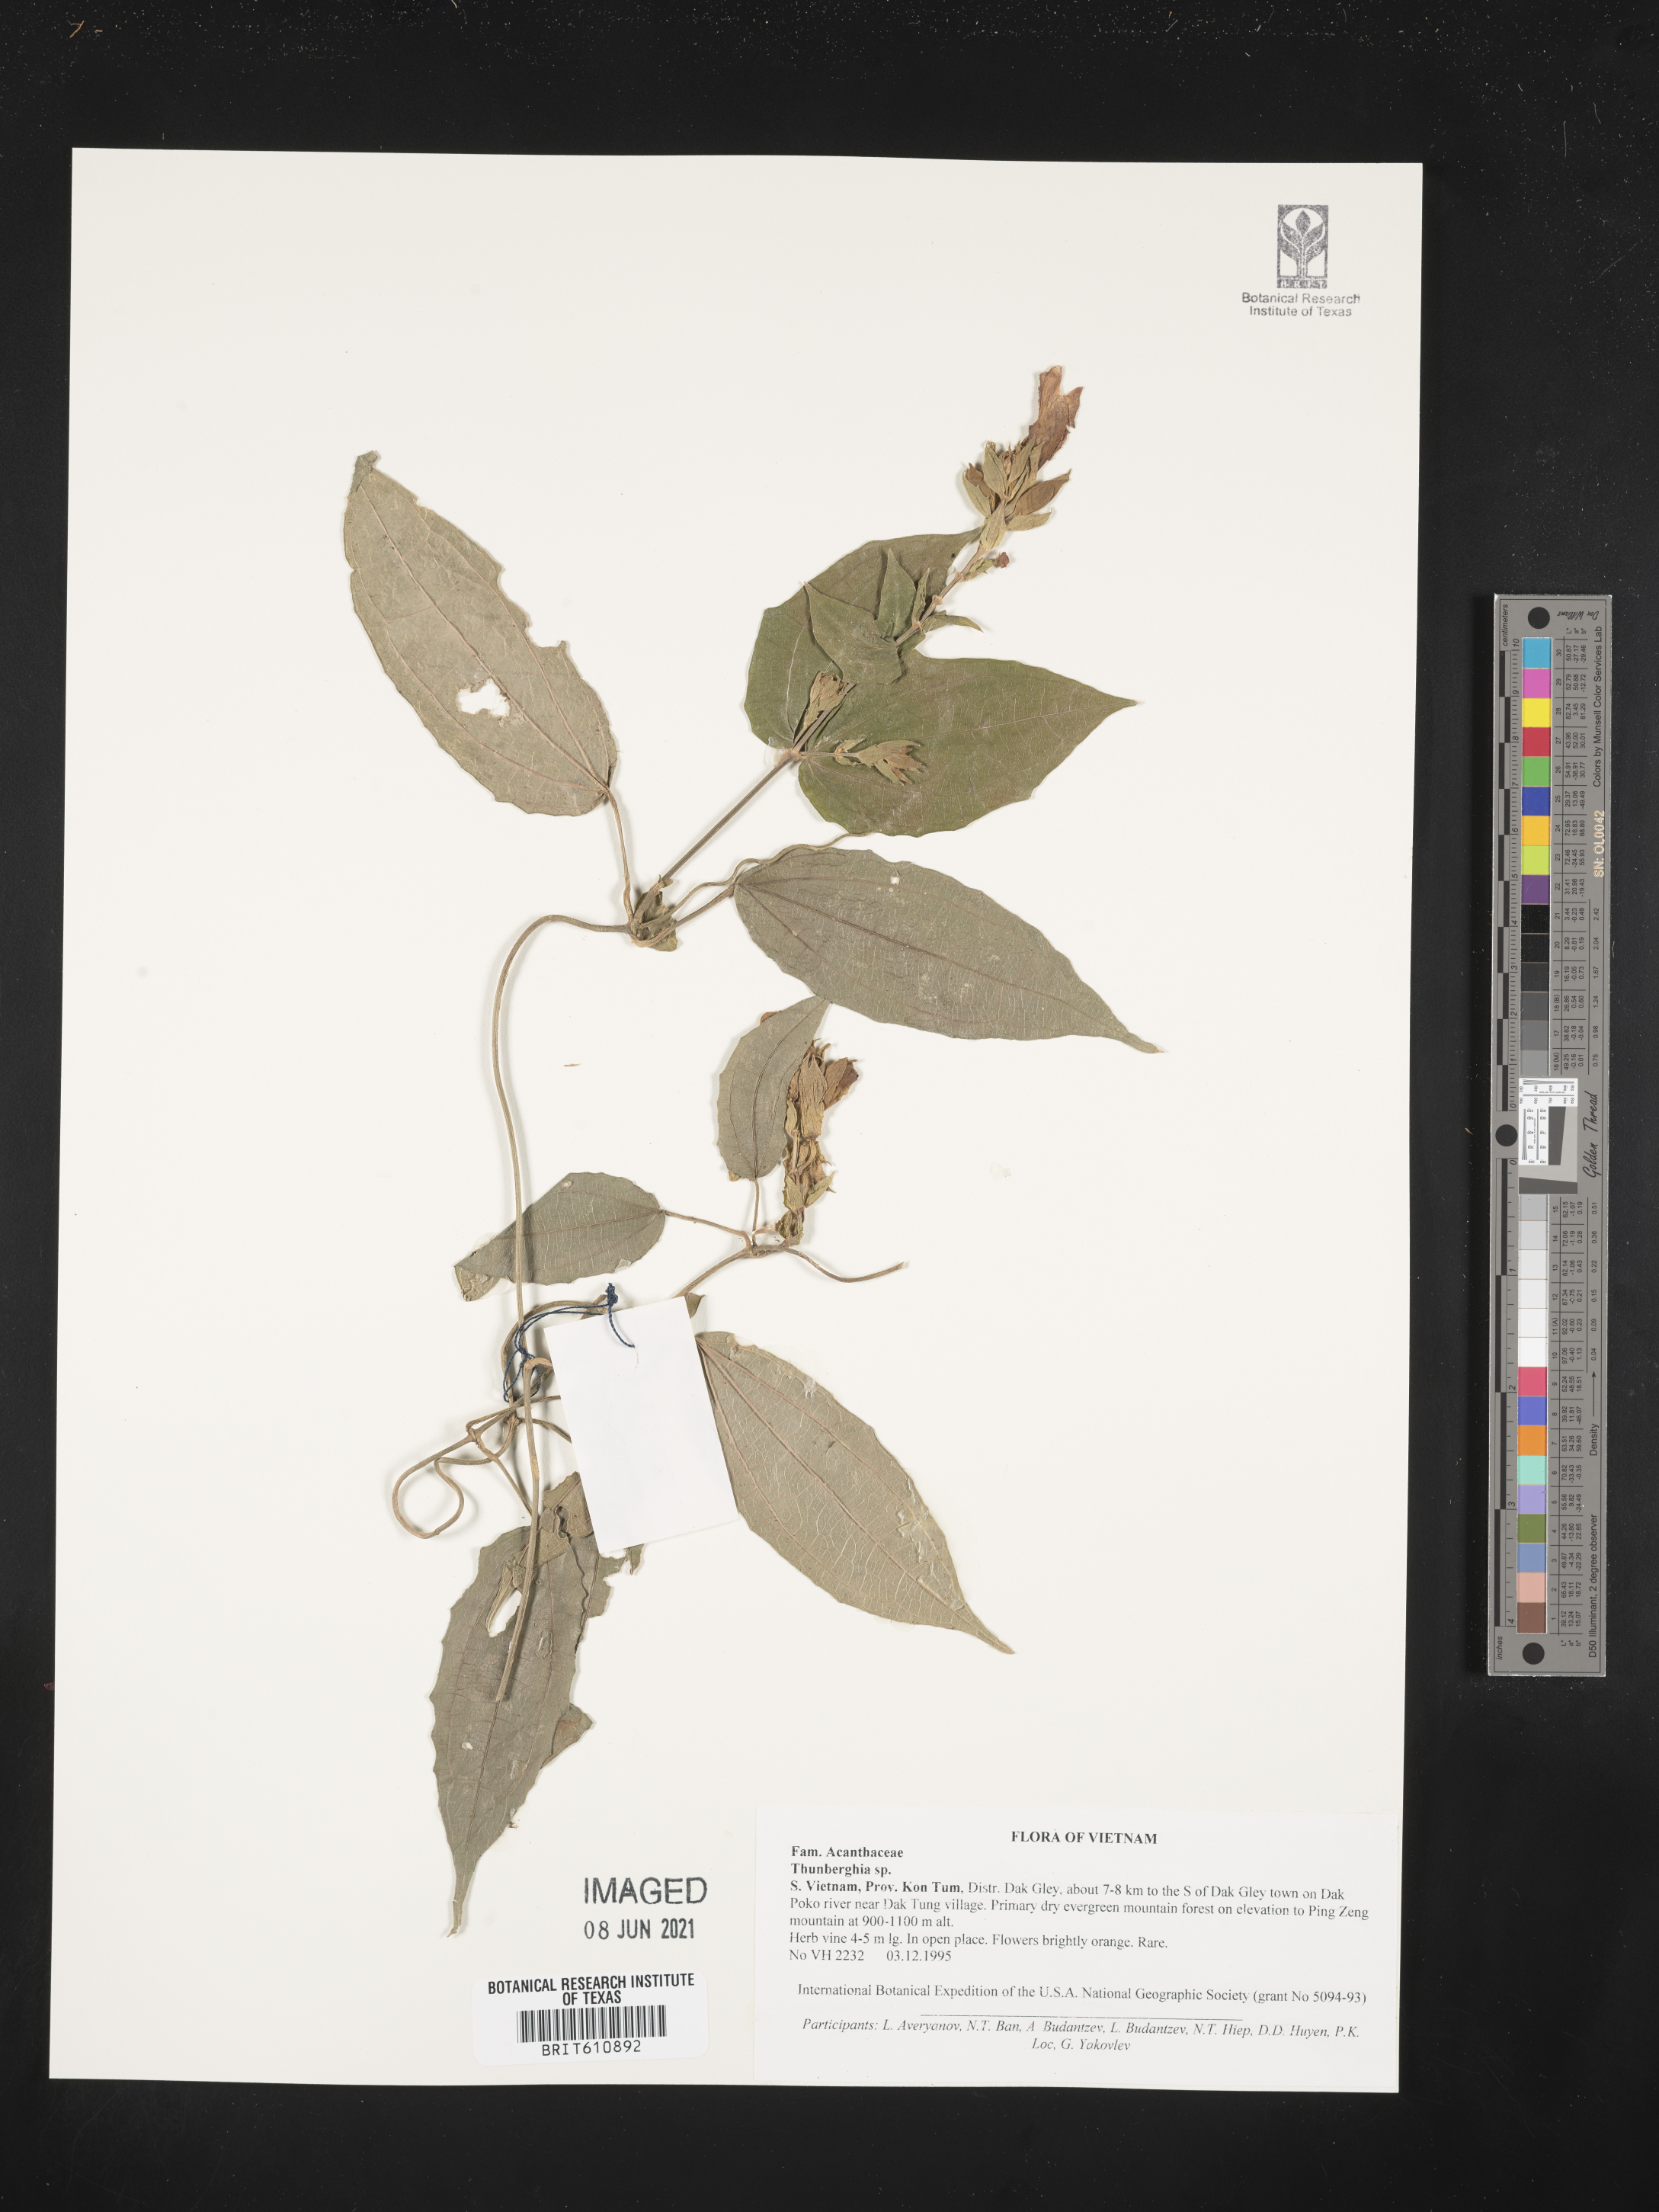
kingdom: Plantae
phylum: Tracheophyta
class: Magnoliopsida
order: Lamiales
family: Acanthaceae
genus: Thunbergia
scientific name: Thunbergia
